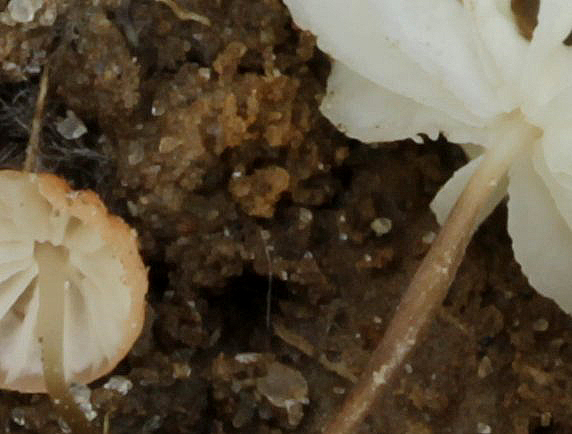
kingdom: Fungi
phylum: Basidiomycota
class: Agaricomycetes
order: Agaricales
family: Marasmiaceae
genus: Marasmius
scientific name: Marasmius curreyi
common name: teglrød bruskhat
